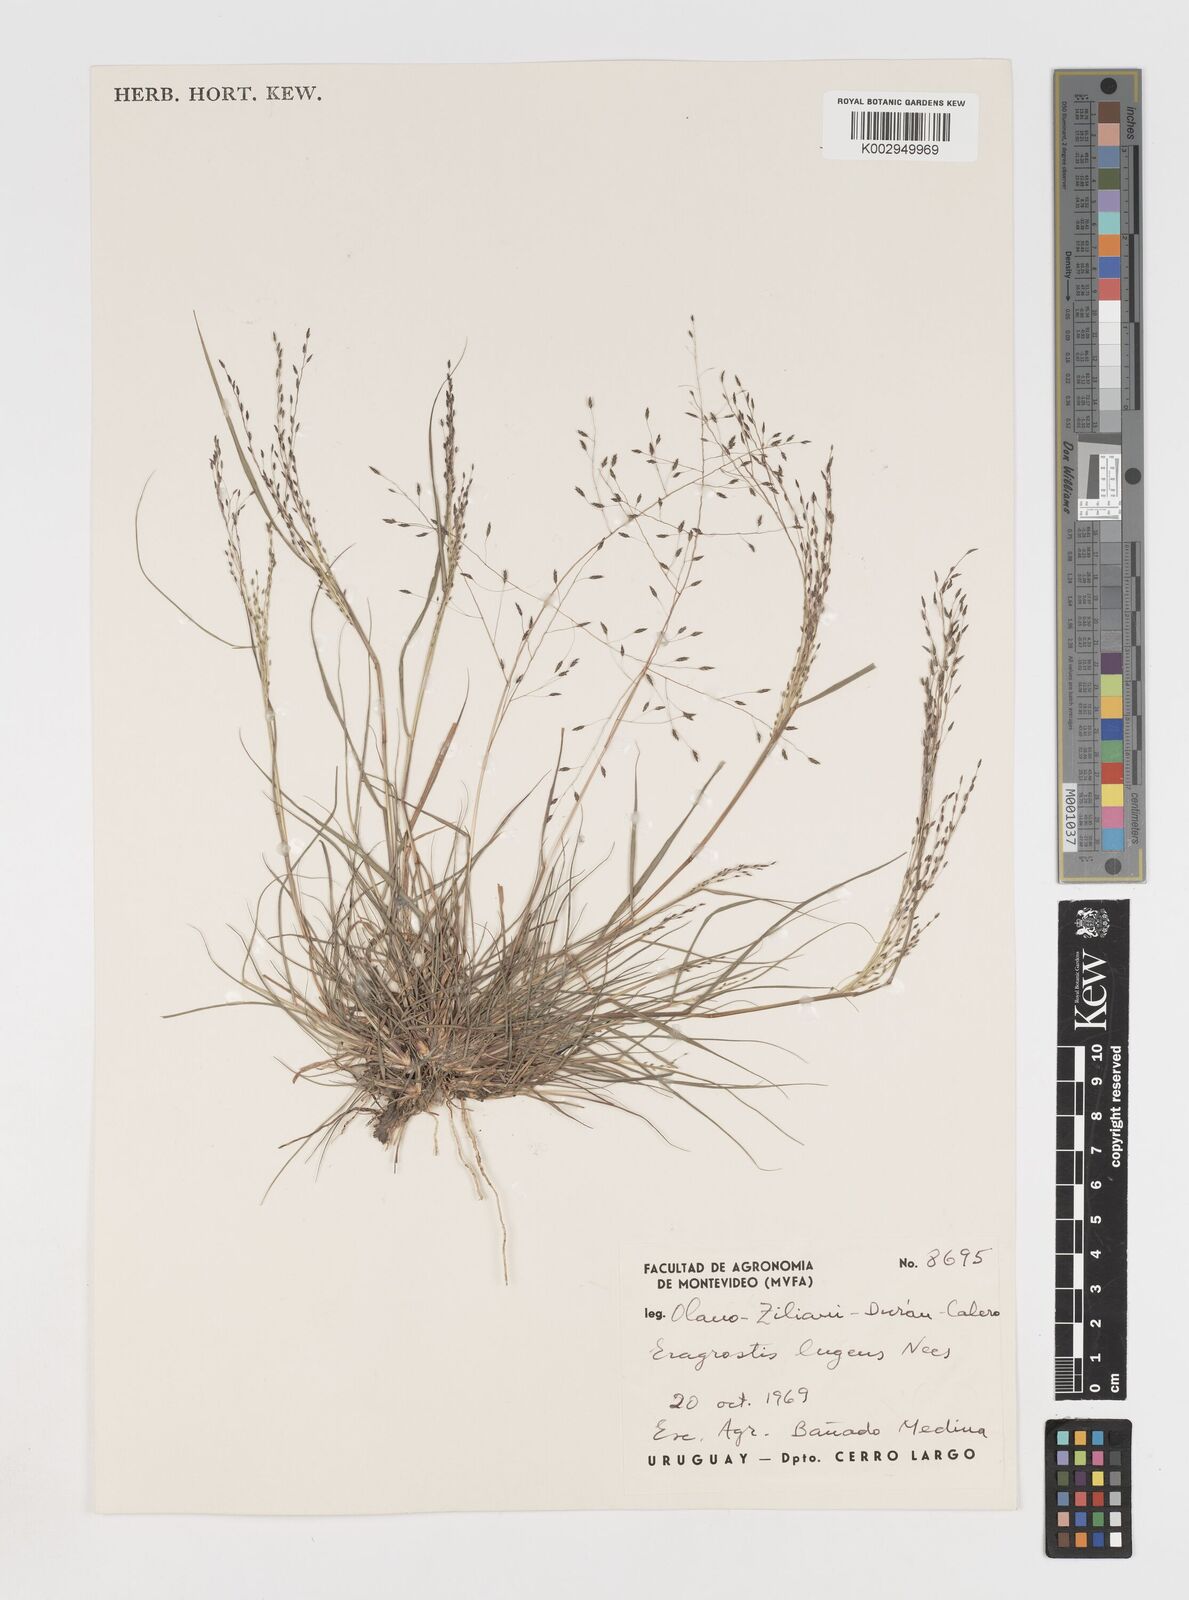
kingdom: Plantae
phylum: Tracheophyta
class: Liliopsida
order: Poales
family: Poaceae
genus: Eragrostis
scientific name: Eragrostis
